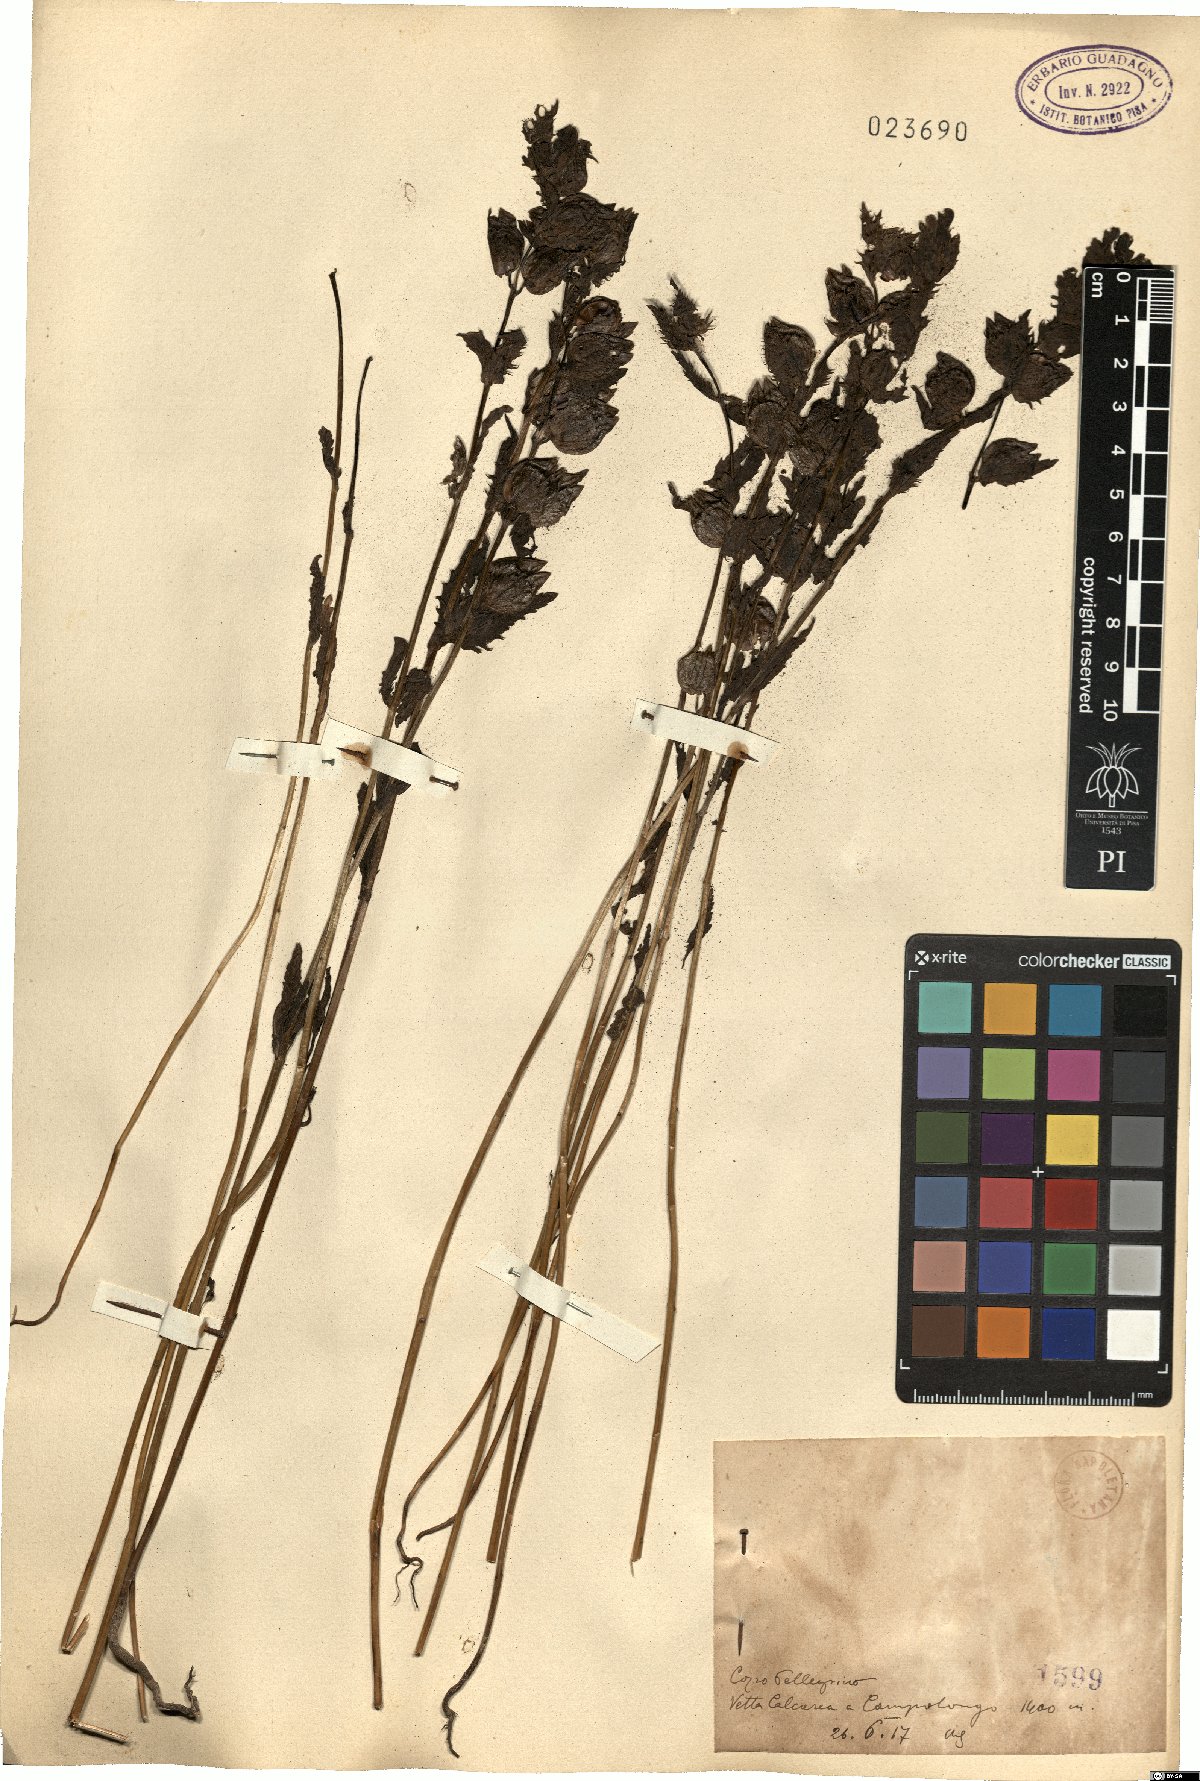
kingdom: Plantae
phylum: Tracheophyta
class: Magnoliopsida
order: Lamiales
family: Orobanchaceae
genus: Rhinanthus
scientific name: Rhinanthus
